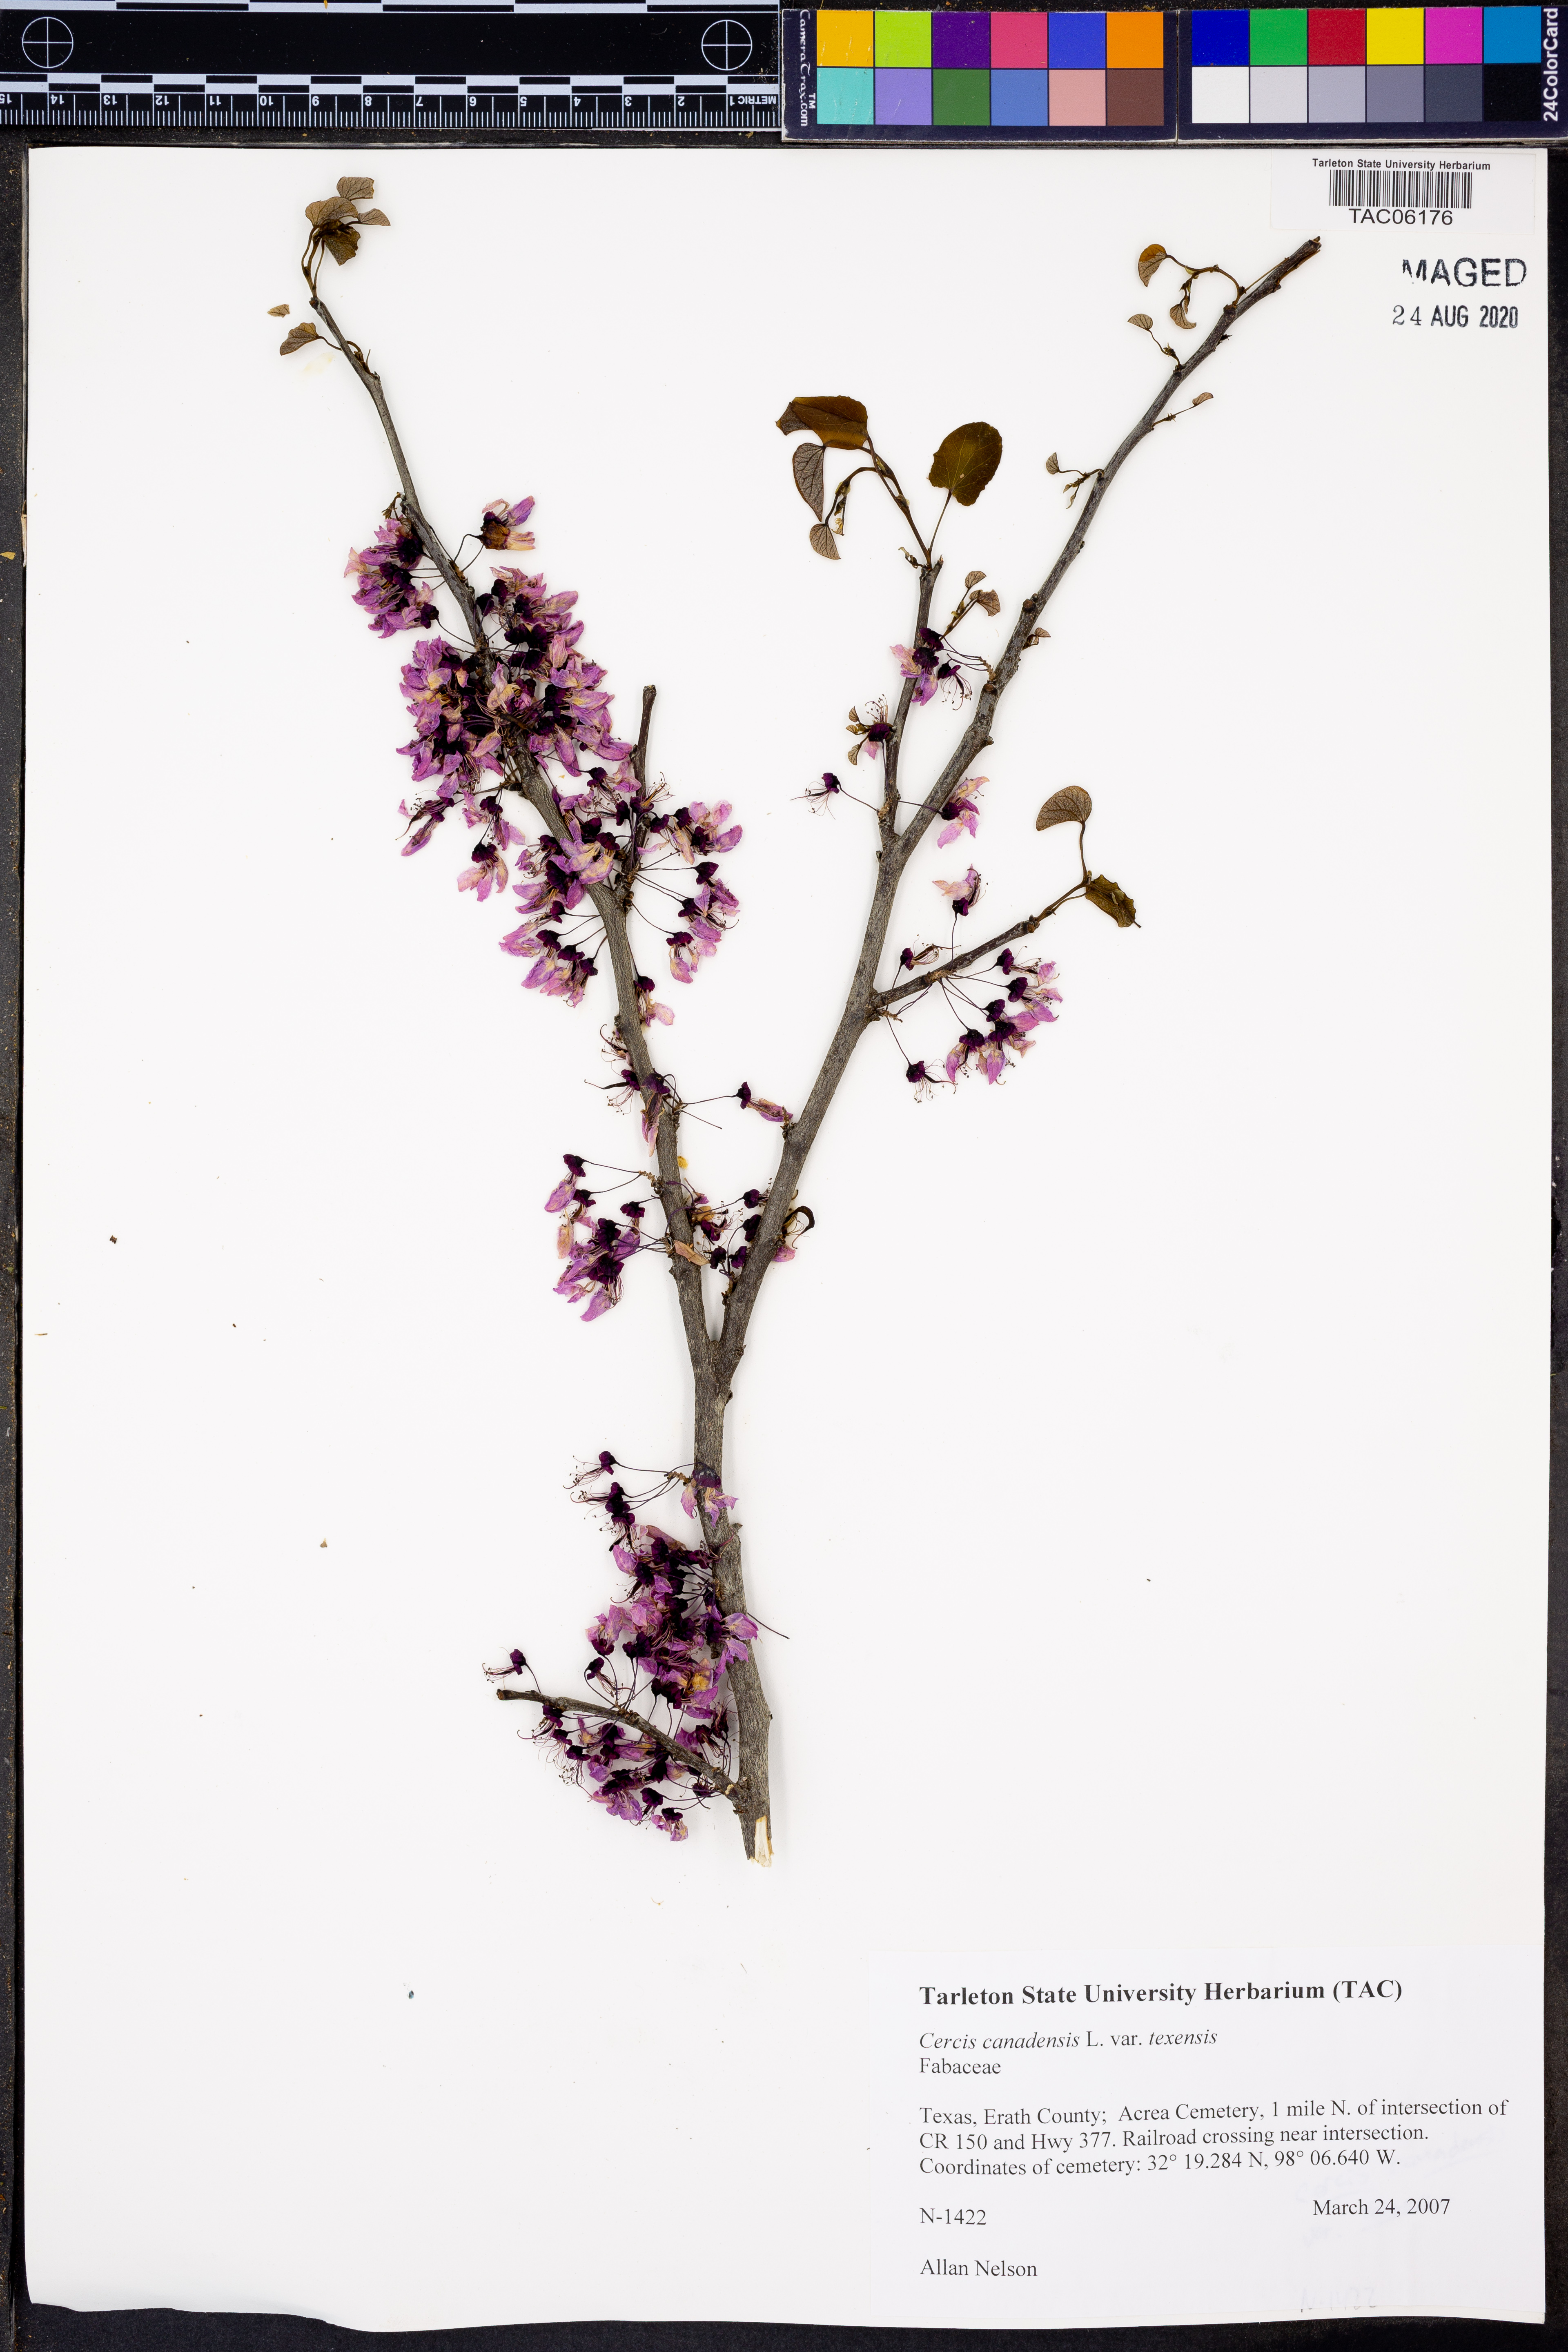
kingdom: Plantae
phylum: Tracheophyta
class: Magnoliopsida
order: Fabales
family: Fabaceae
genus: Cercis
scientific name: Cercis canadensis
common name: Eastern redbud
